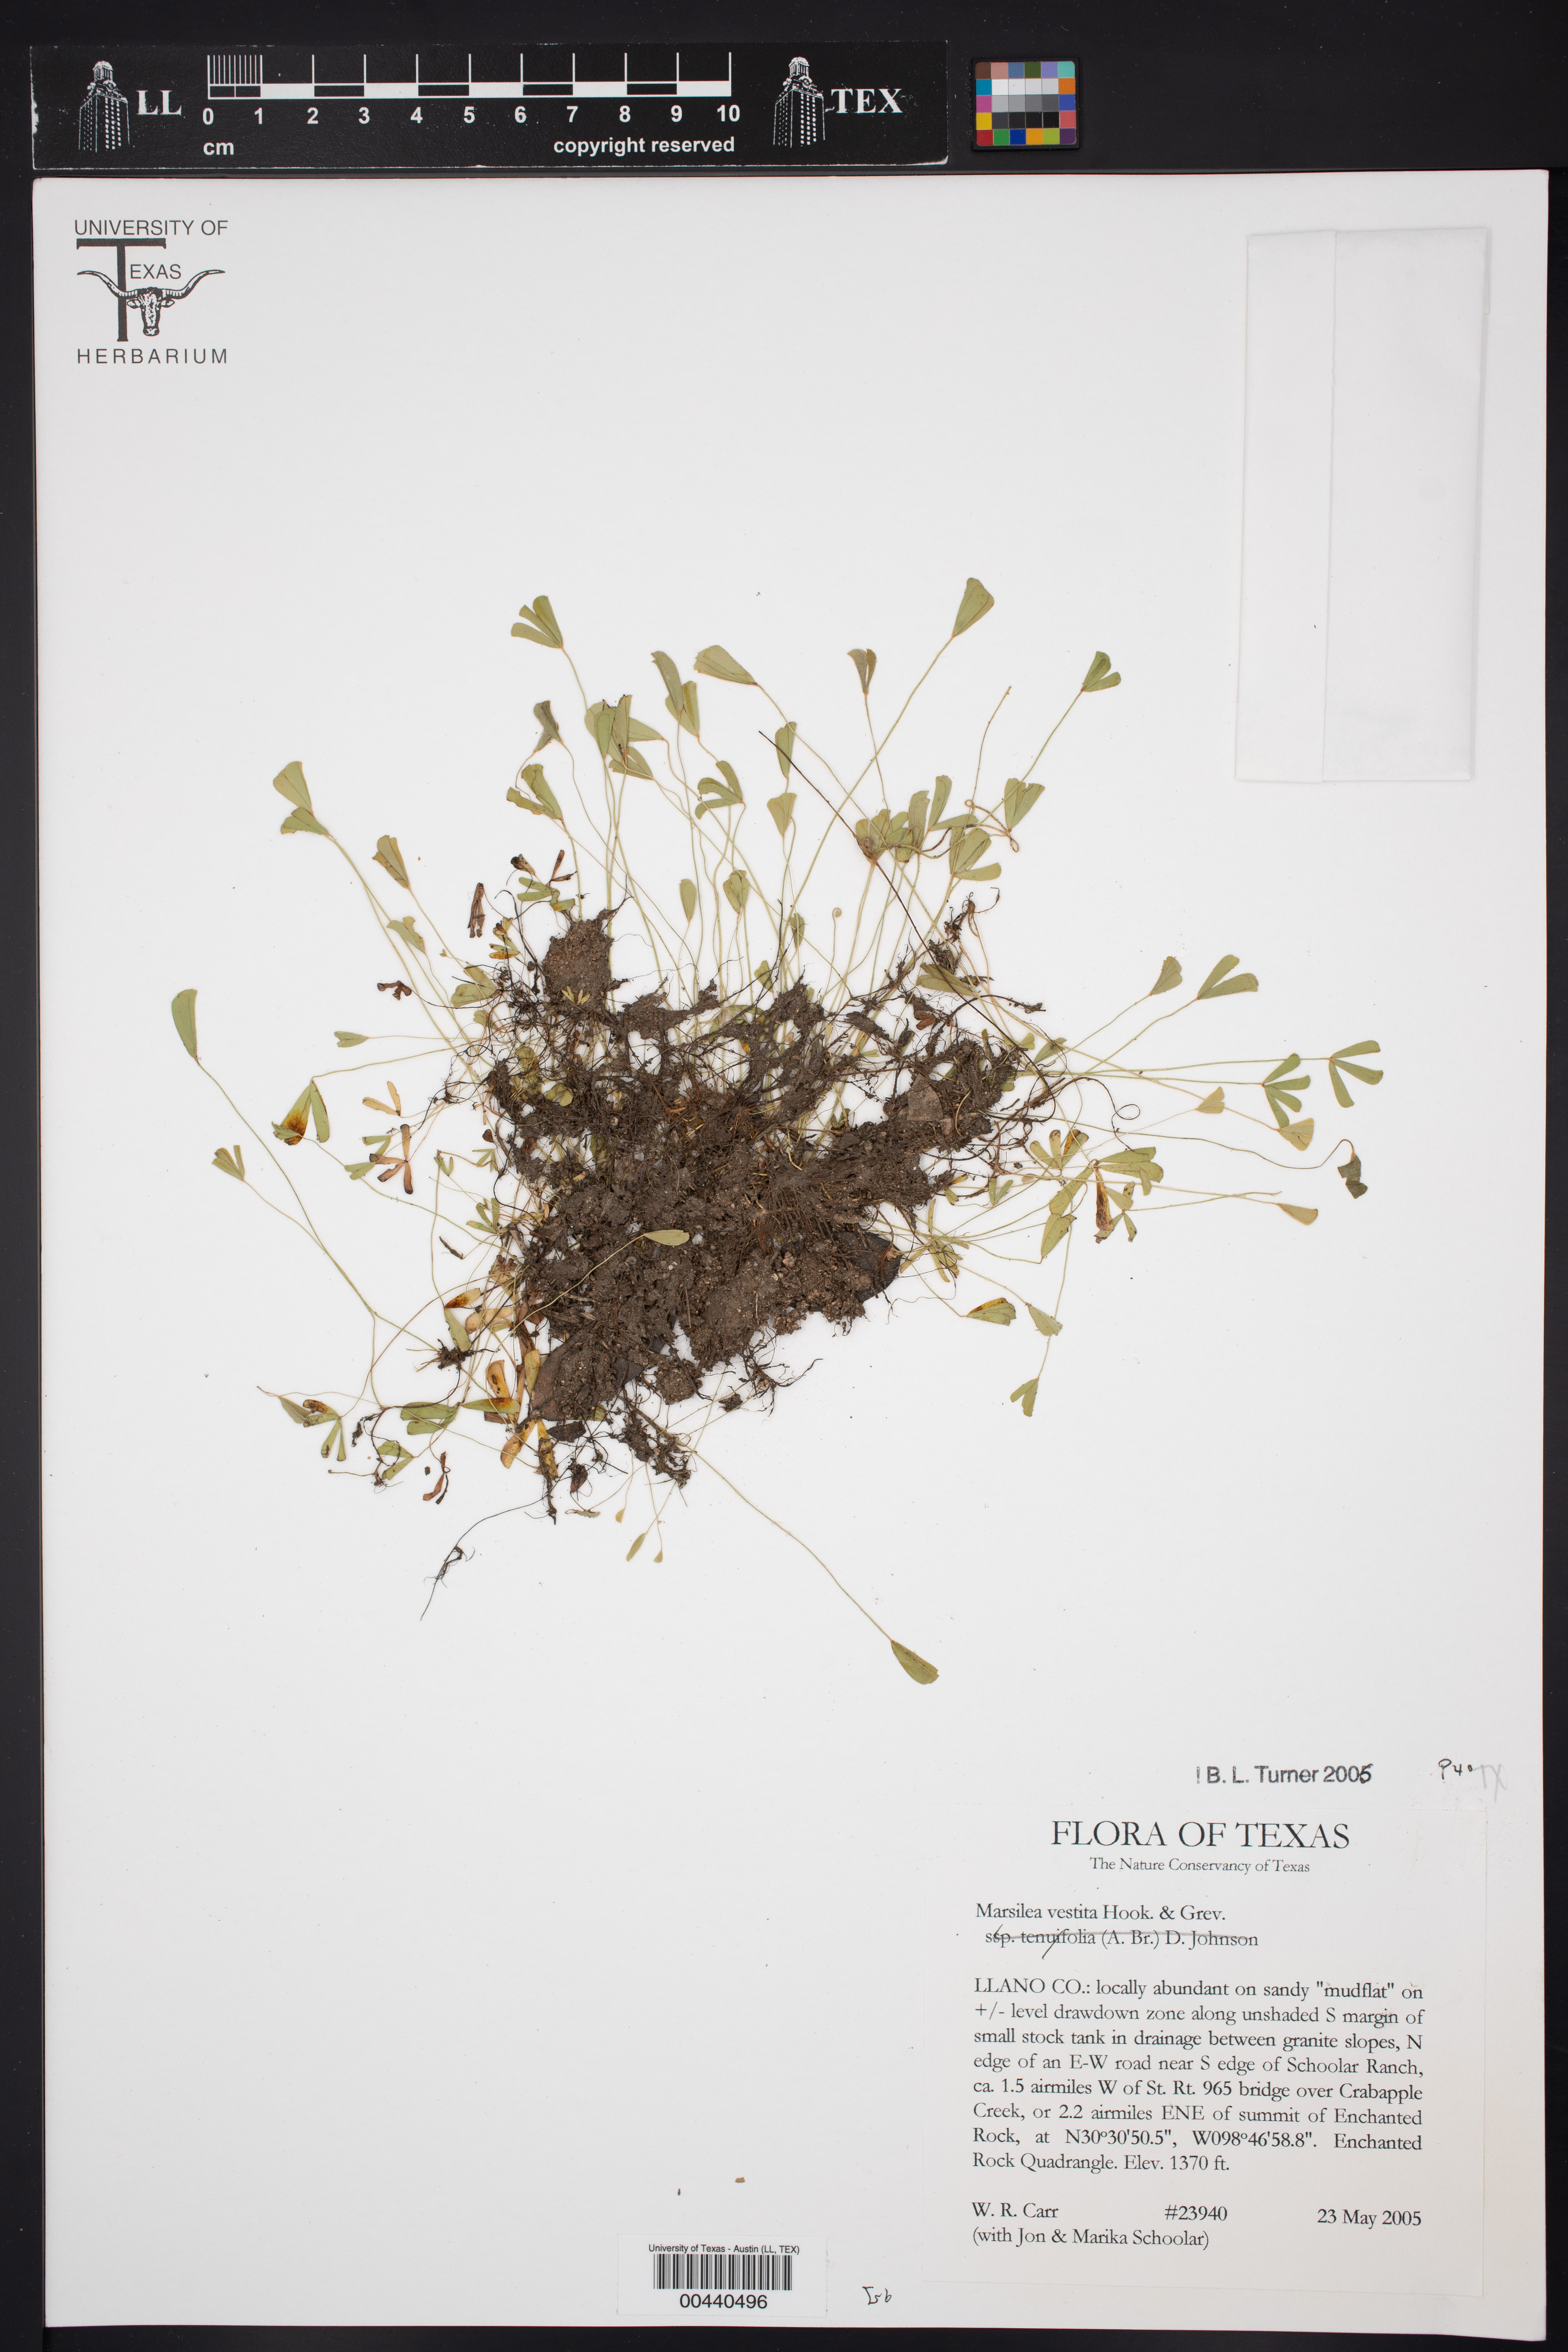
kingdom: Plantae
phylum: Tracheophyta
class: Polypodiopsida
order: Salviniales
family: Marsileaceae
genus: Marsilea
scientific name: Marsilea vestita
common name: Hooked-pepperwort
